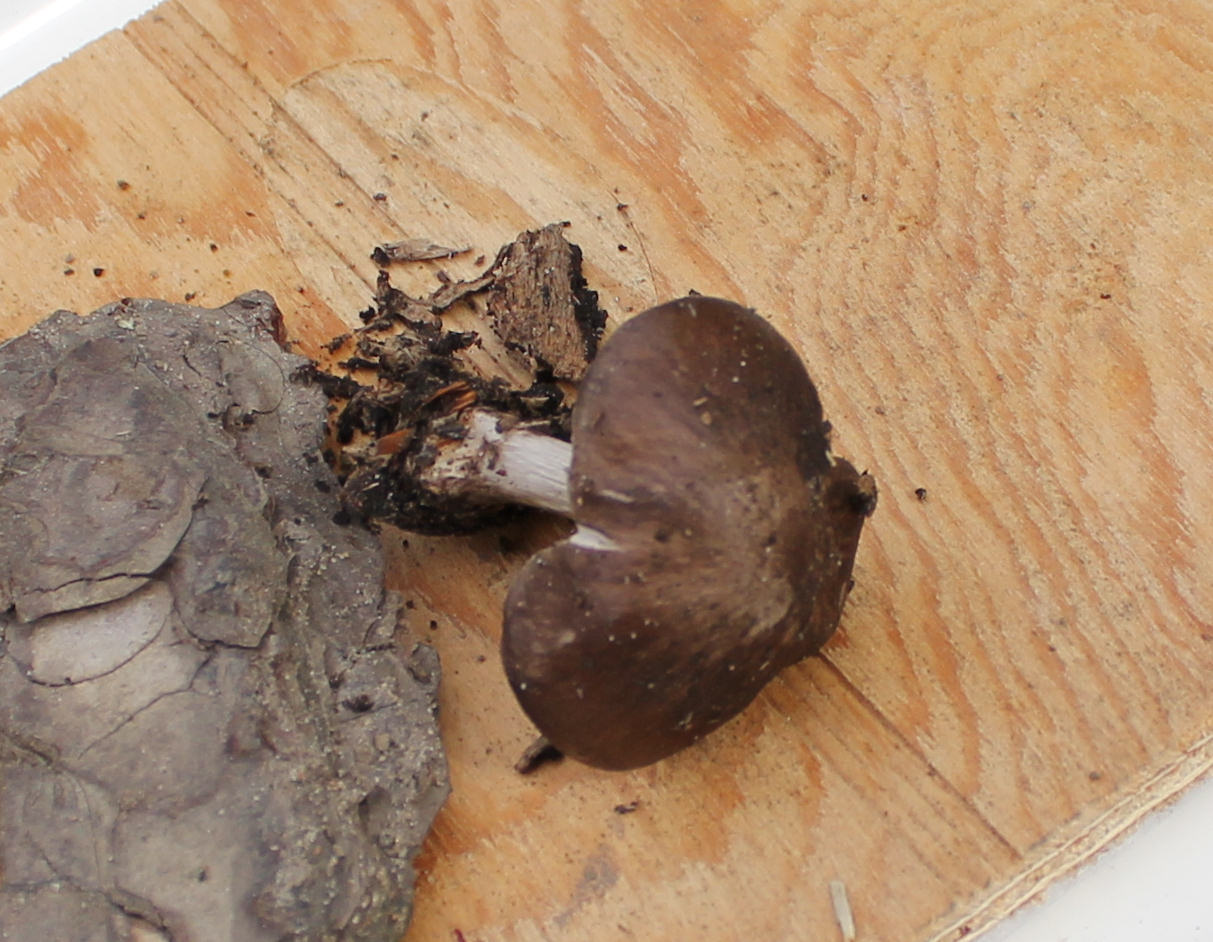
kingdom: Fungi
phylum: Basidiomycota
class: Agaricomycetes
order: Agaricales
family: Pluteaceae
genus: Pluteus
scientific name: Pluteus cervinus
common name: sodfarvet skærmhat
